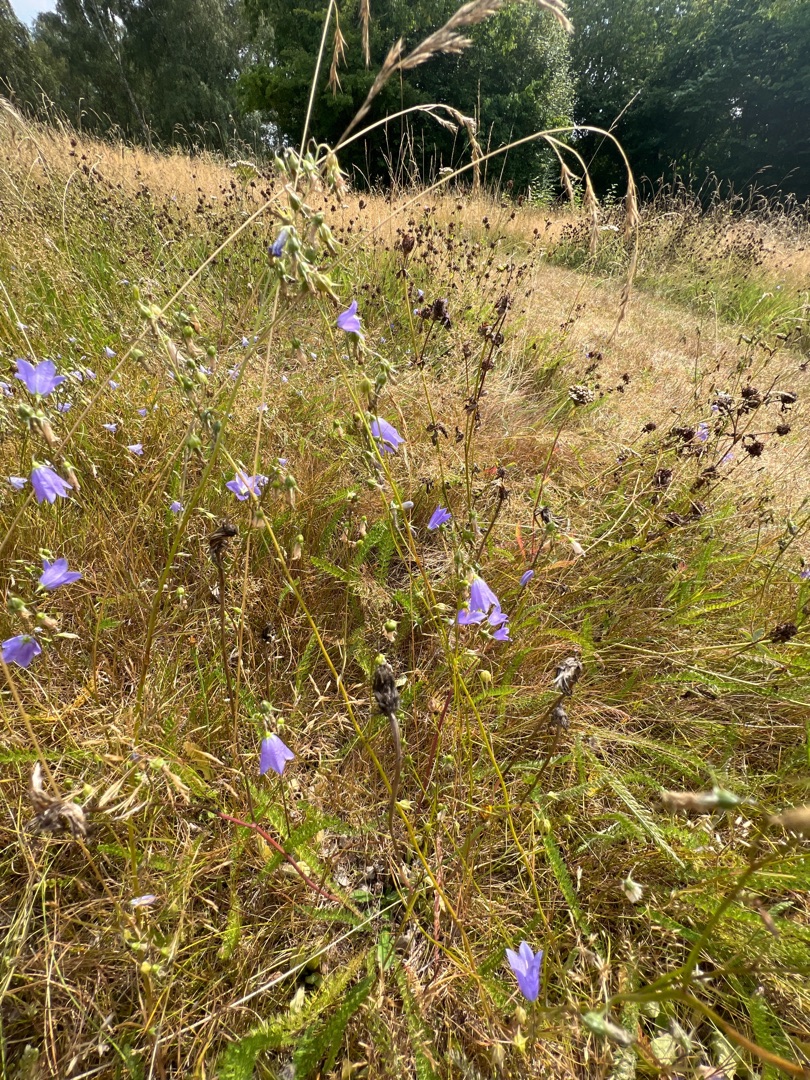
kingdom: Plantae
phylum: Tracheophyta
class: Magnoliopsida
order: Asterales
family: Campanulaceae
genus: Campanula
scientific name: Campanula rotundifolia
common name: Liden klokke
